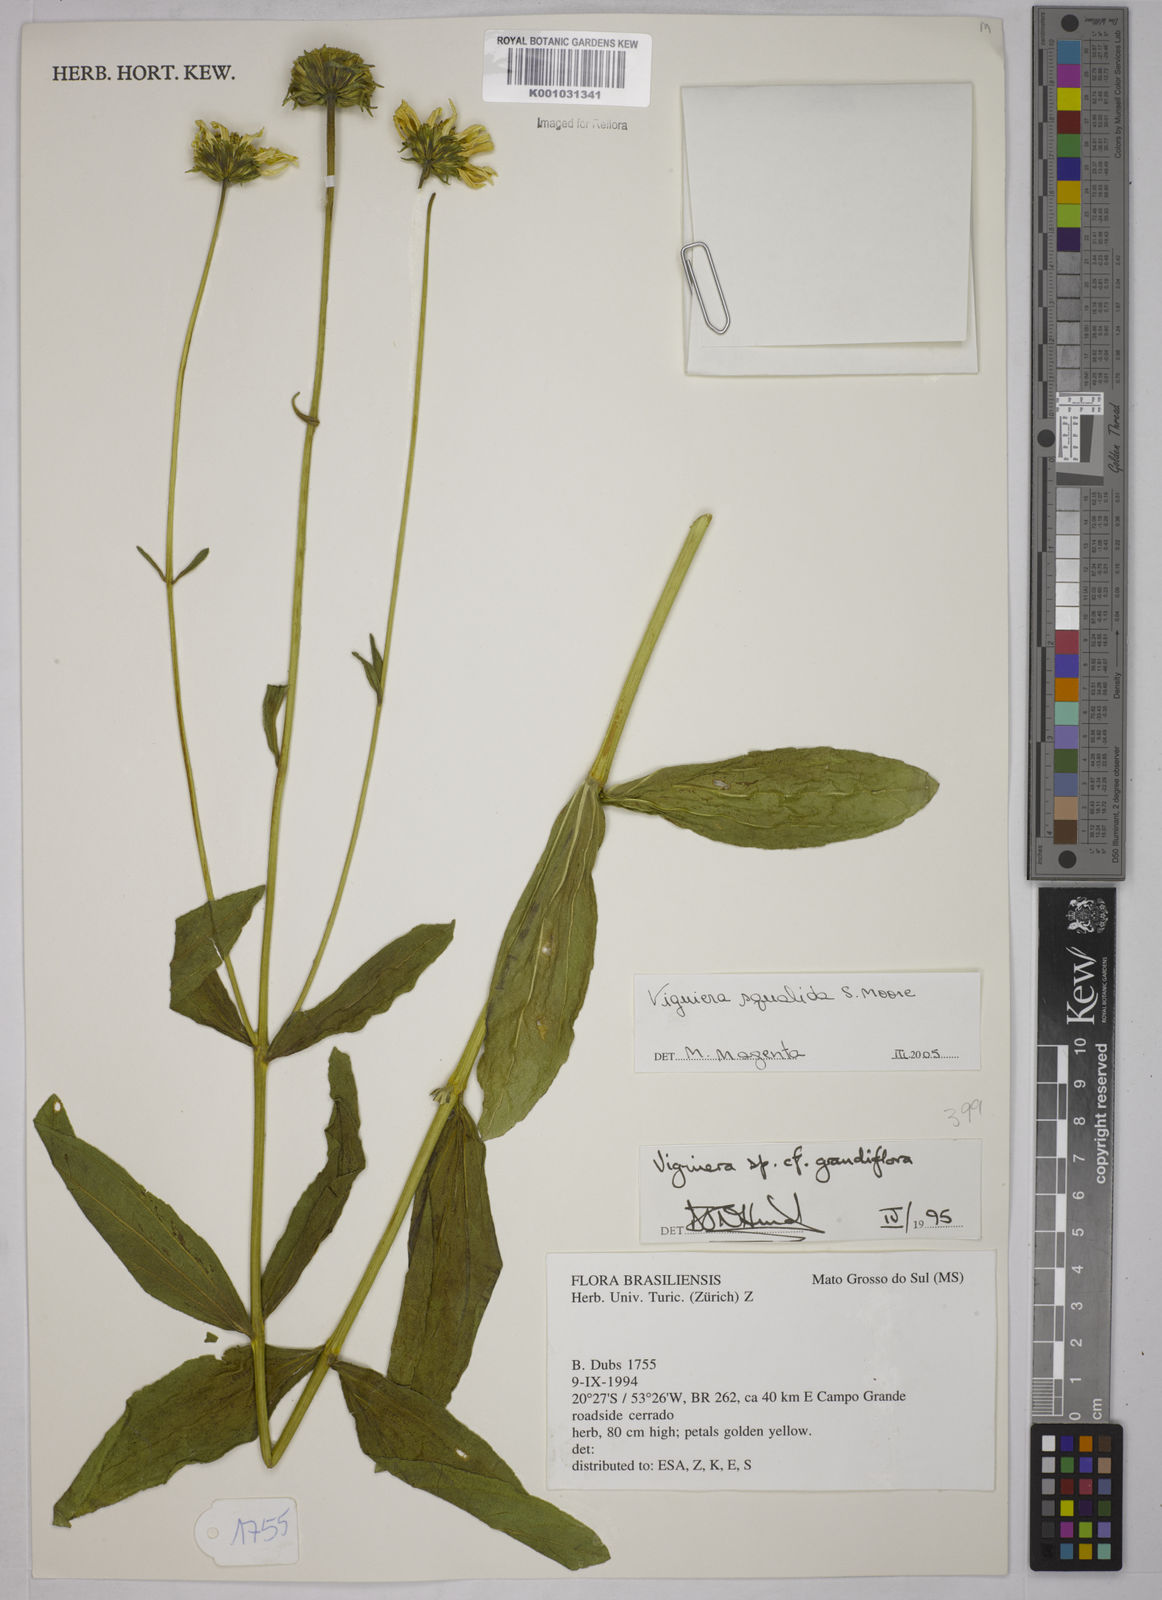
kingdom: Plantae
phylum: Tracheophyta
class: Magnoliopsida
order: Asterales
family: Asteraceae
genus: Aldama
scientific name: Aldama squalida
